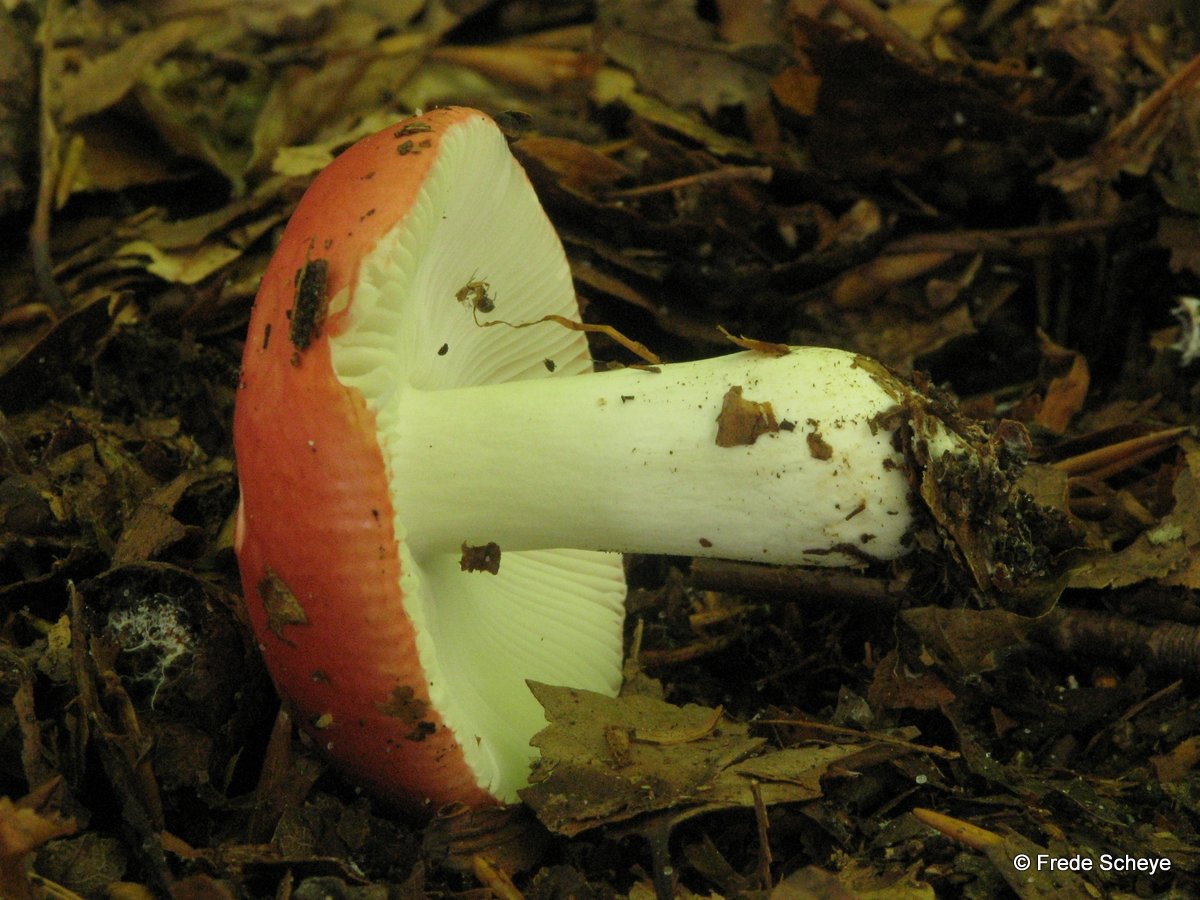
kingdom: Fungi
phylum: Basidiomycota
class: Agaricomycetes
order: Russulales
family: Russulaceae
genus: Russula
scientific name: Russula nobilis
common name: lille gift-skørhat
